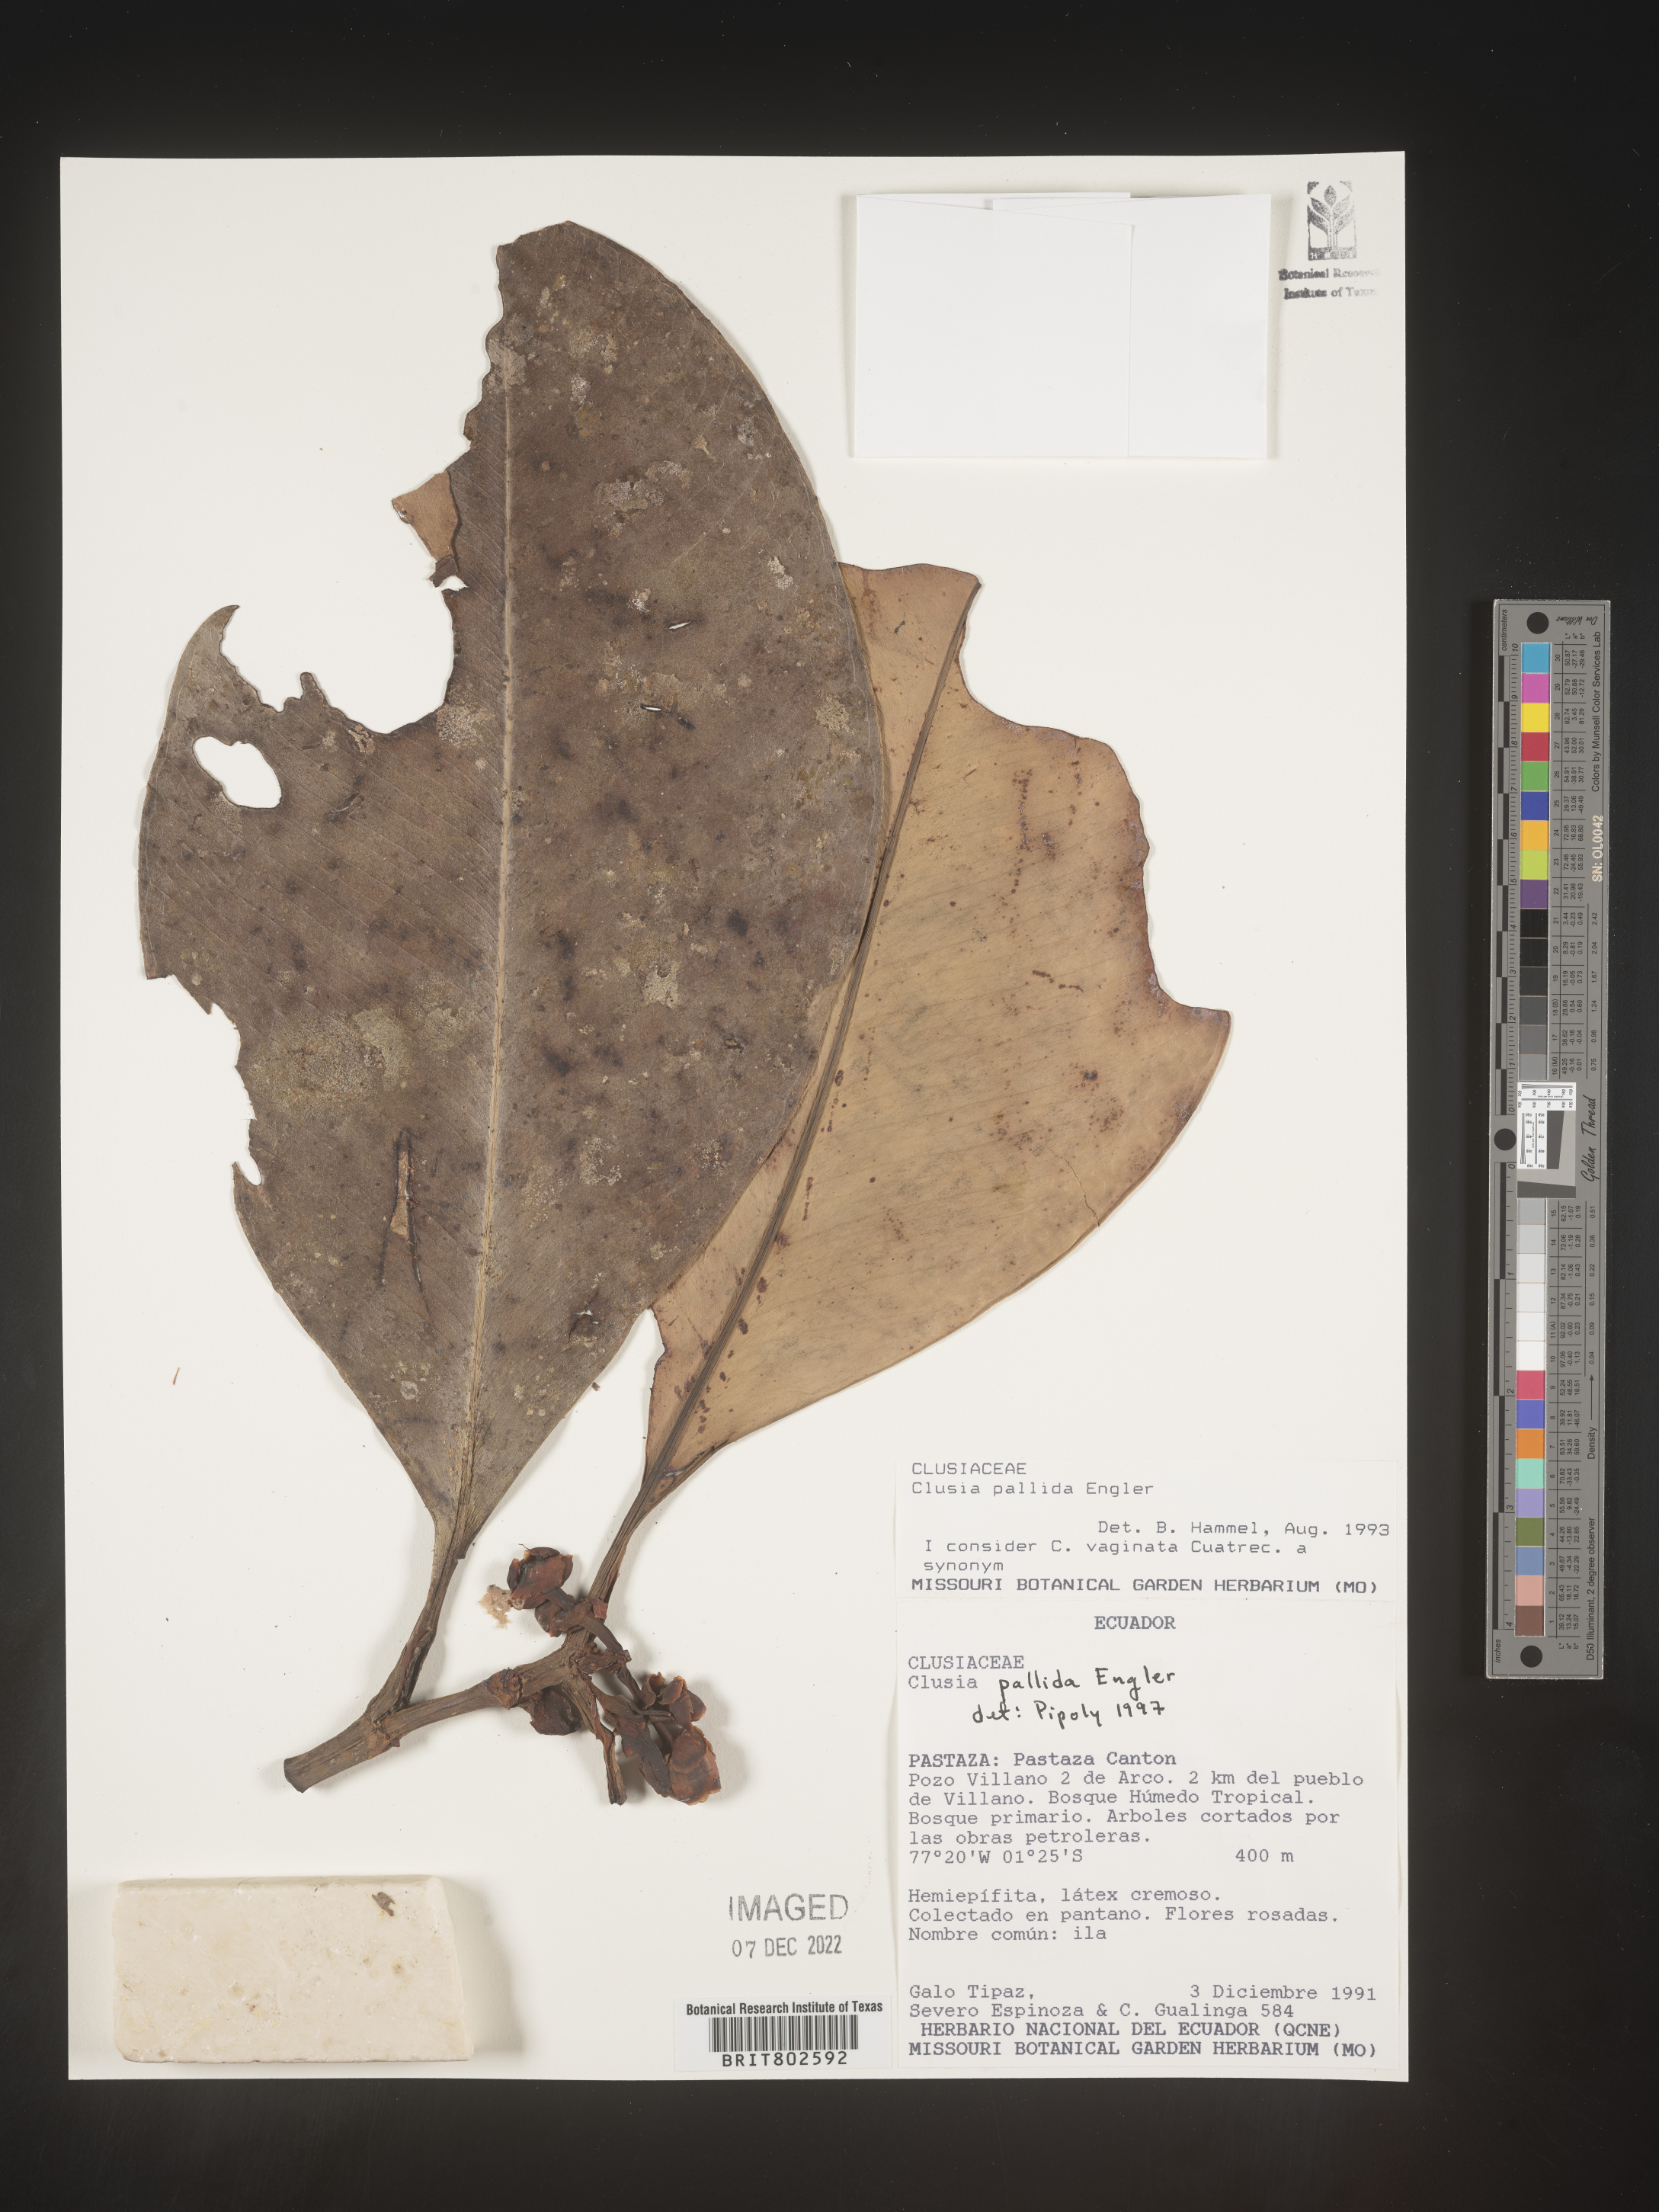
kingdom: Plantae
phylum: Tracheophyta
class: Magnoliopsida
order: Malpighiales
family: Clusiaceae
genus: Clusia
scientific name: Clusia pallida
